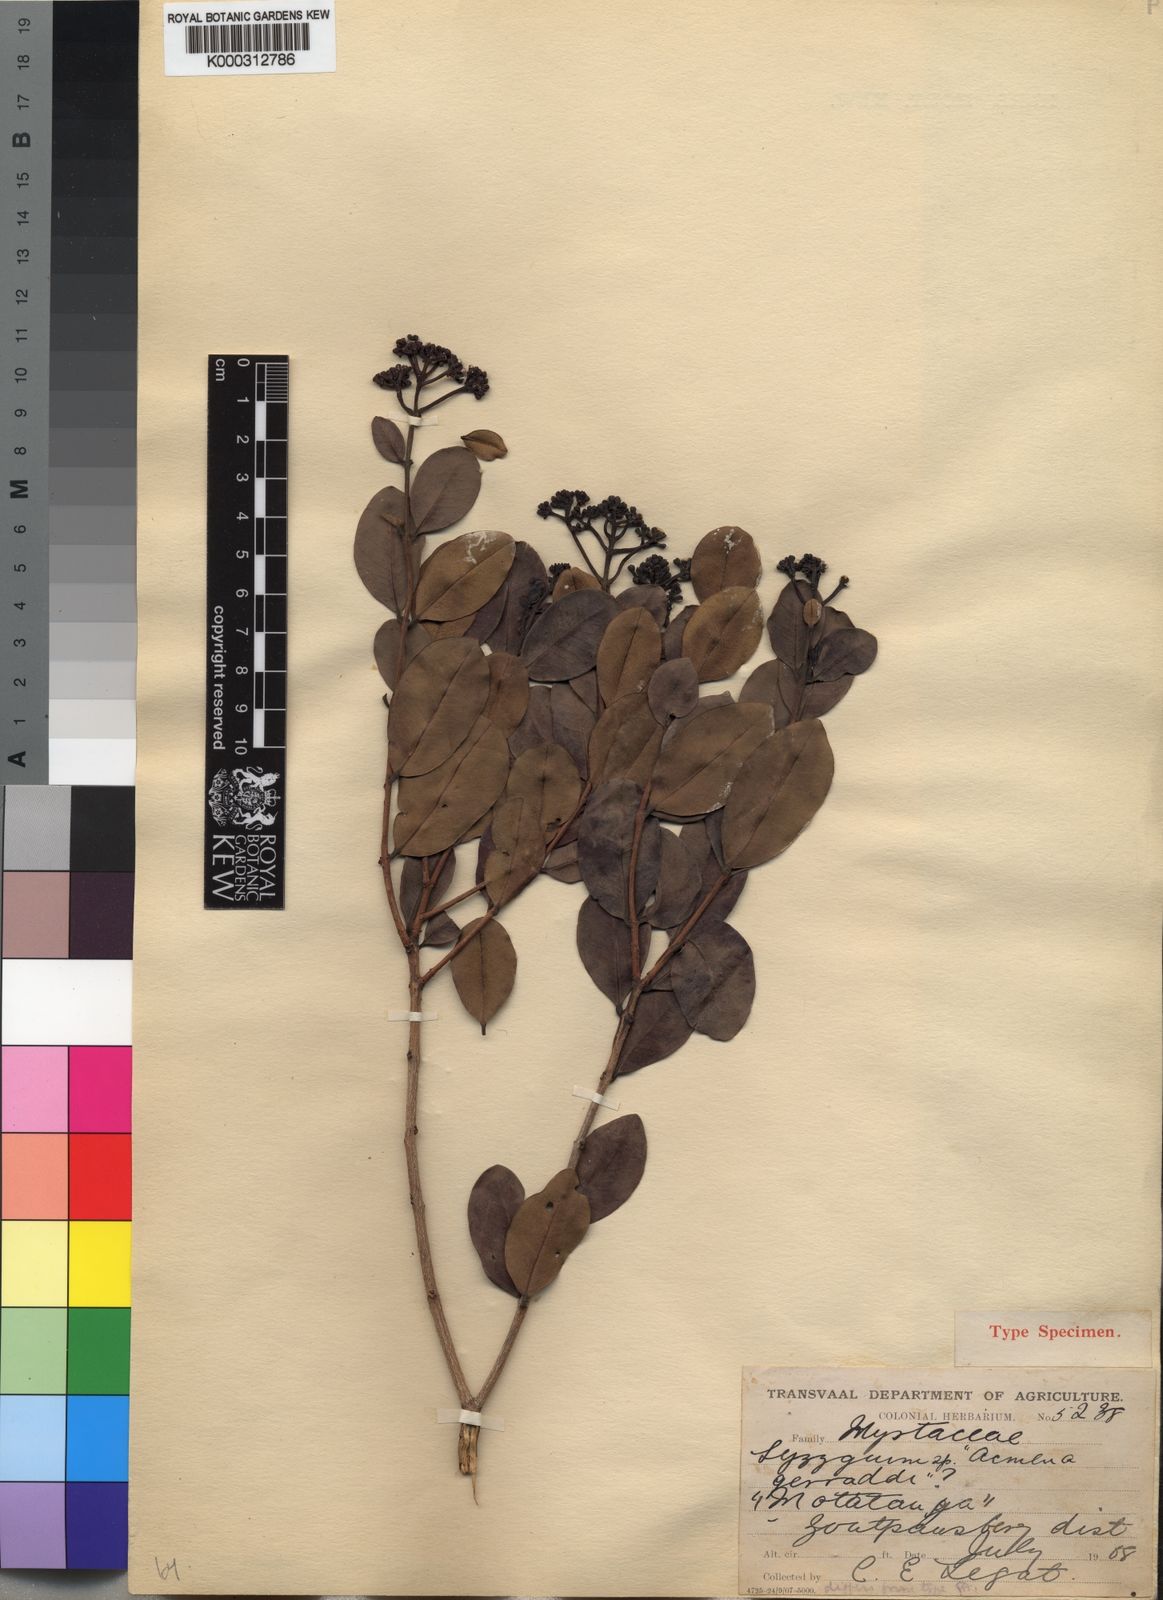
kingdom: Plantae
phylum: Tracheophyta
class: Magnoliopsida
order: Myrtales
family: Myrtaceae
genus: Syzygium
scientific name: Syzygium legatii
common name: Mountain waterberry
